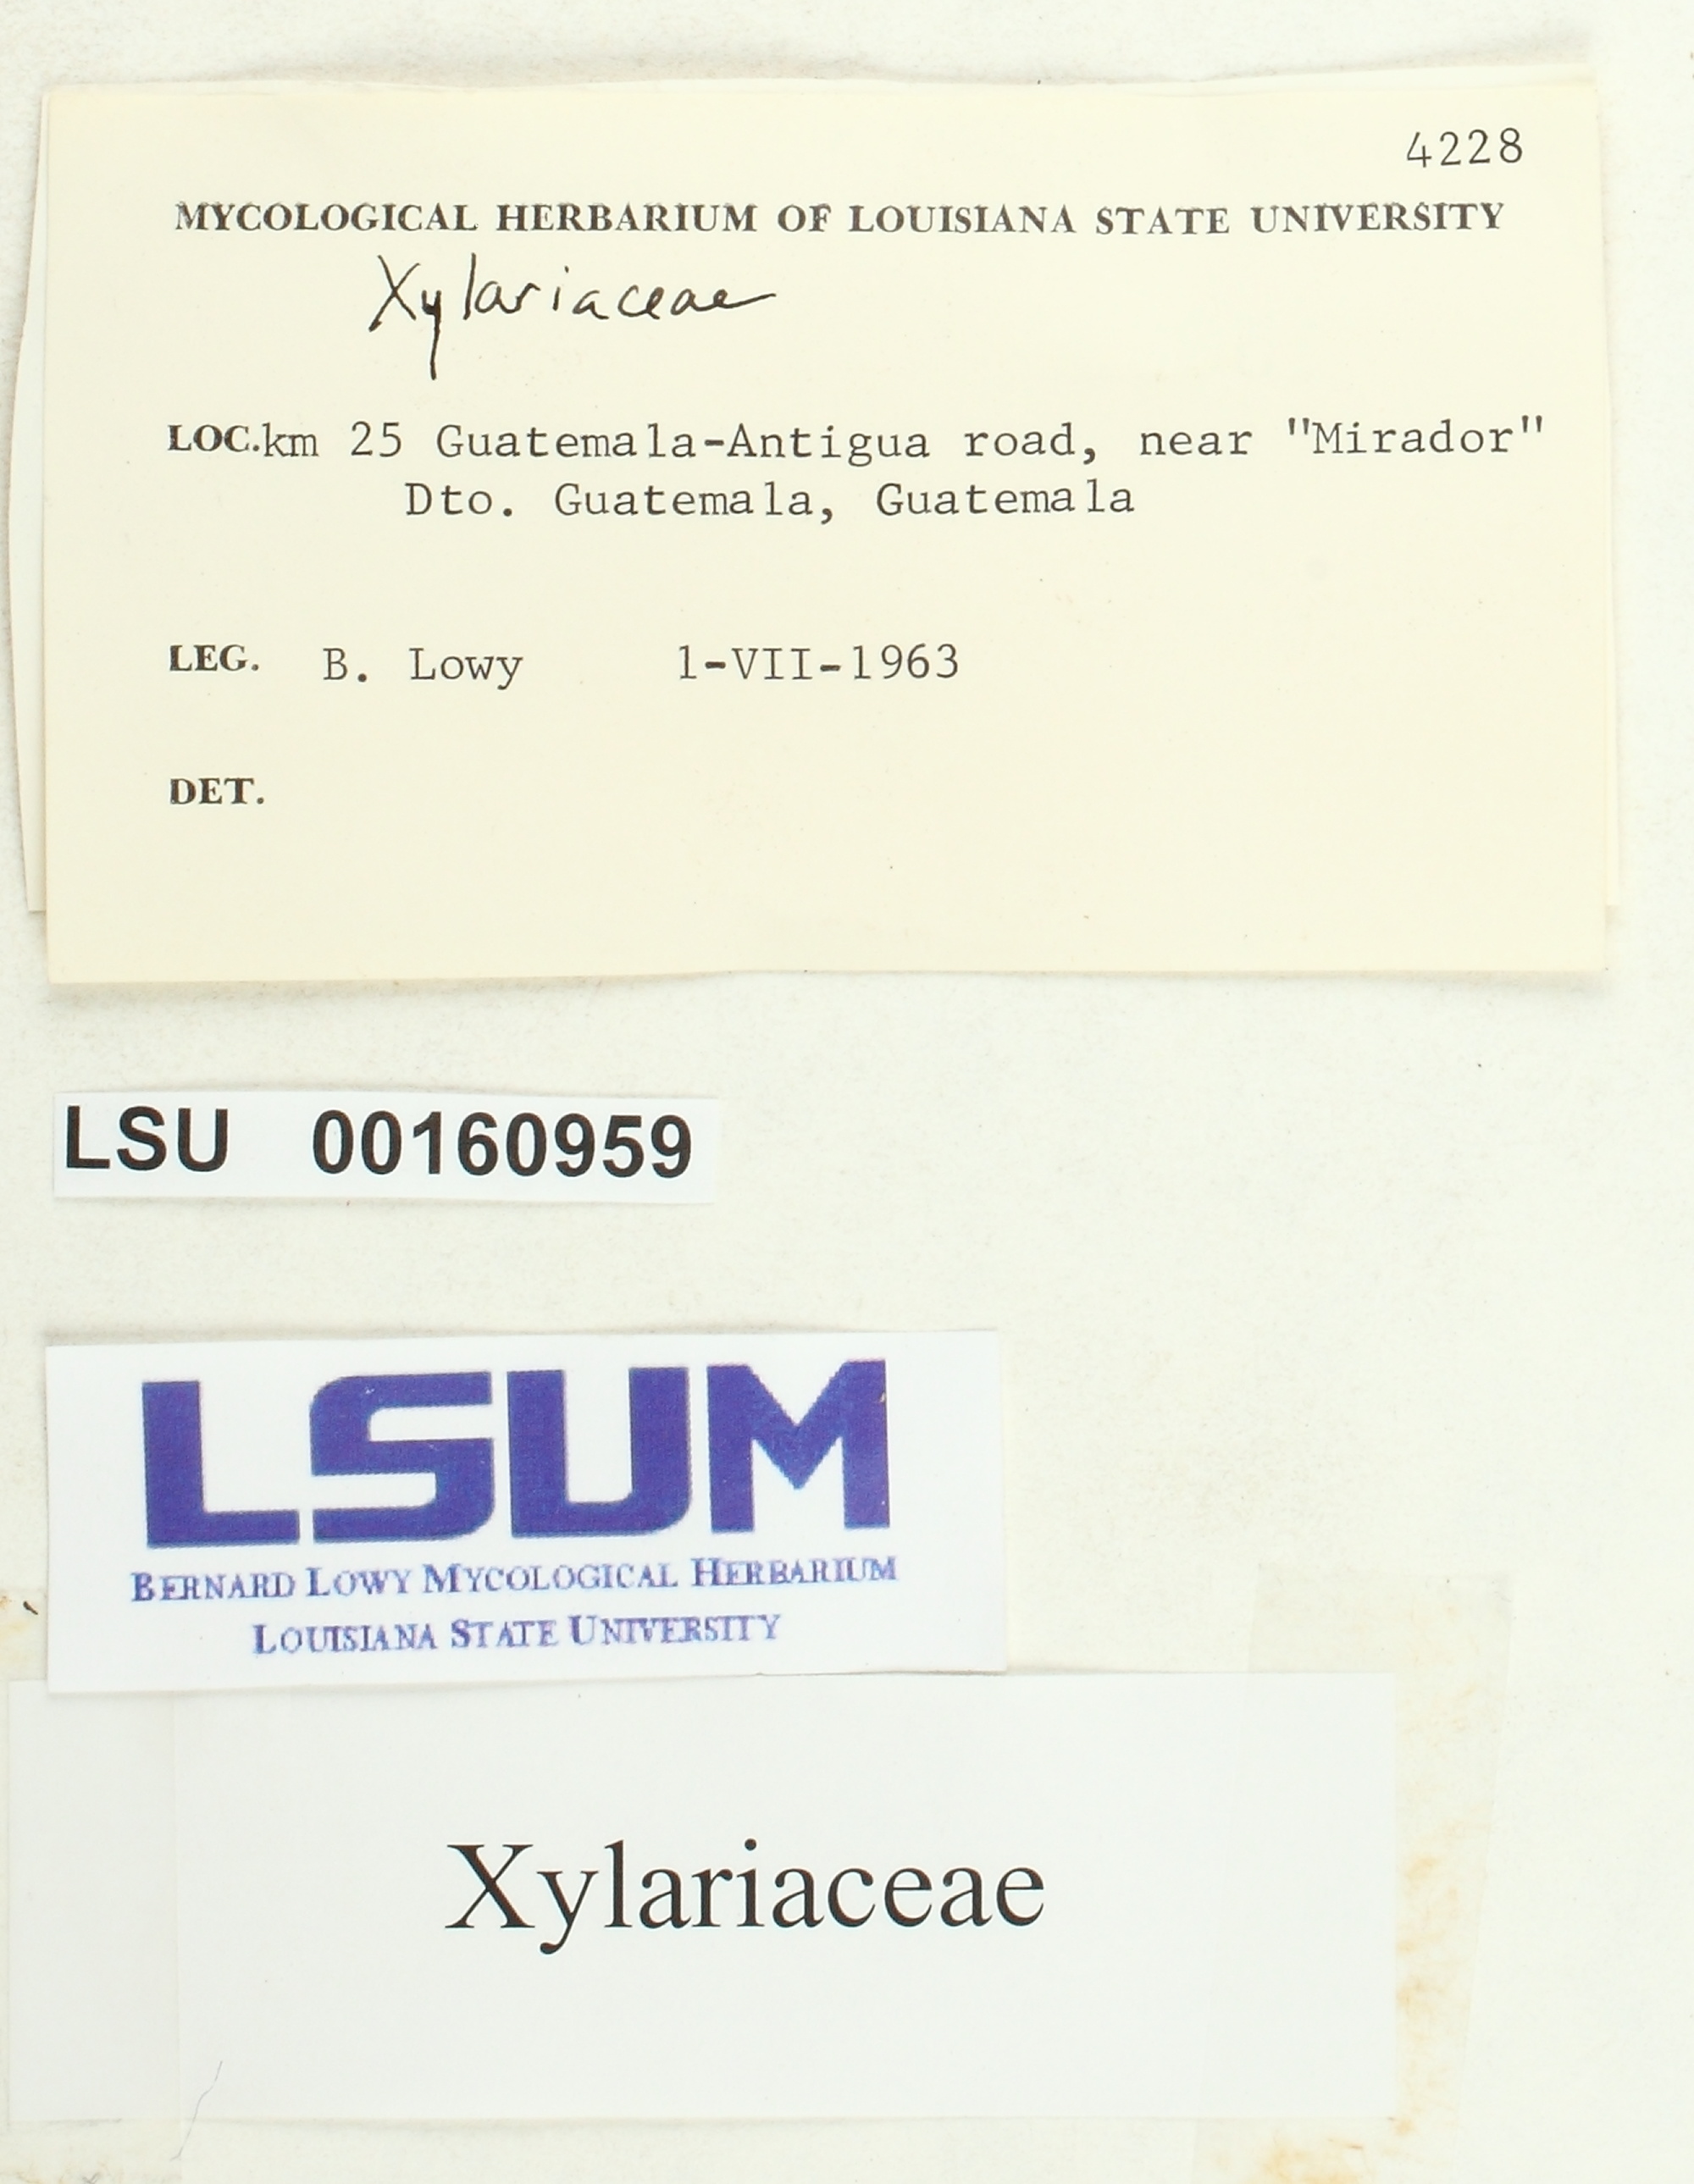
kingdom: Fungi
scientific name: Fungi
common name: Fungi
